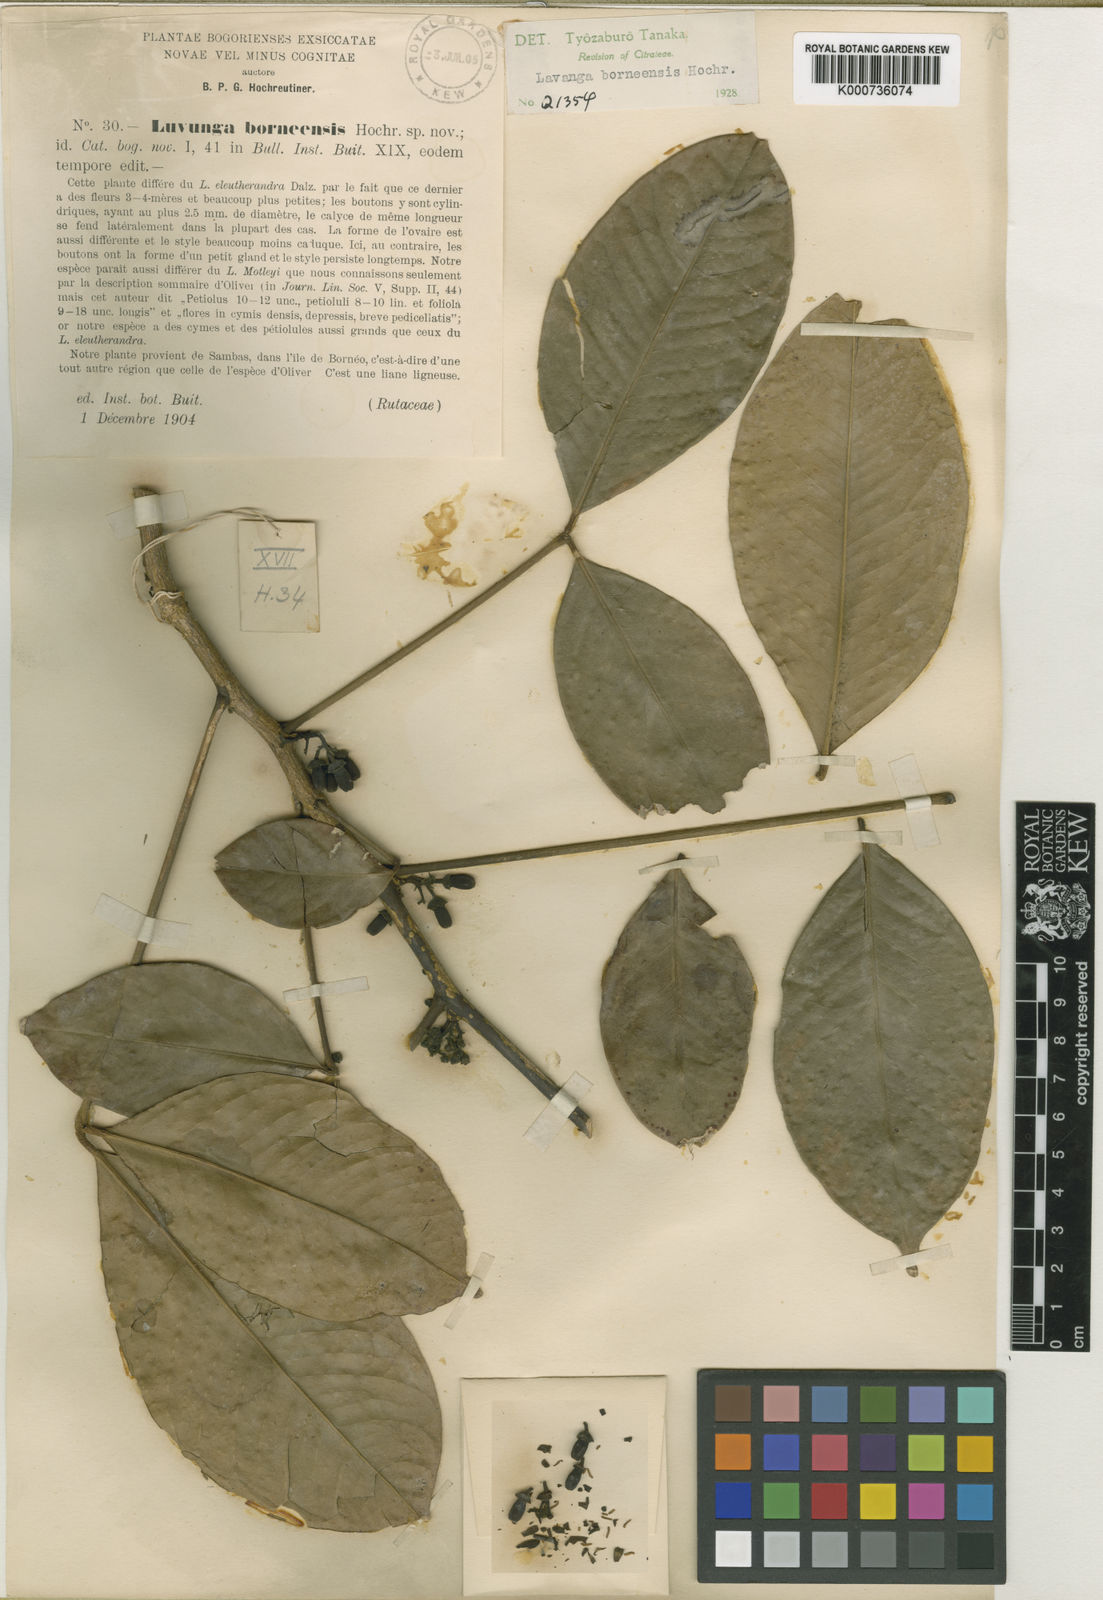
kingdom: Plantae
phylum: Tracheophyta
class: Magnoliopsida
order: Sapindales
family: Rutaceae
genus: Luvunga
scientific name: Luvunga borneensis
